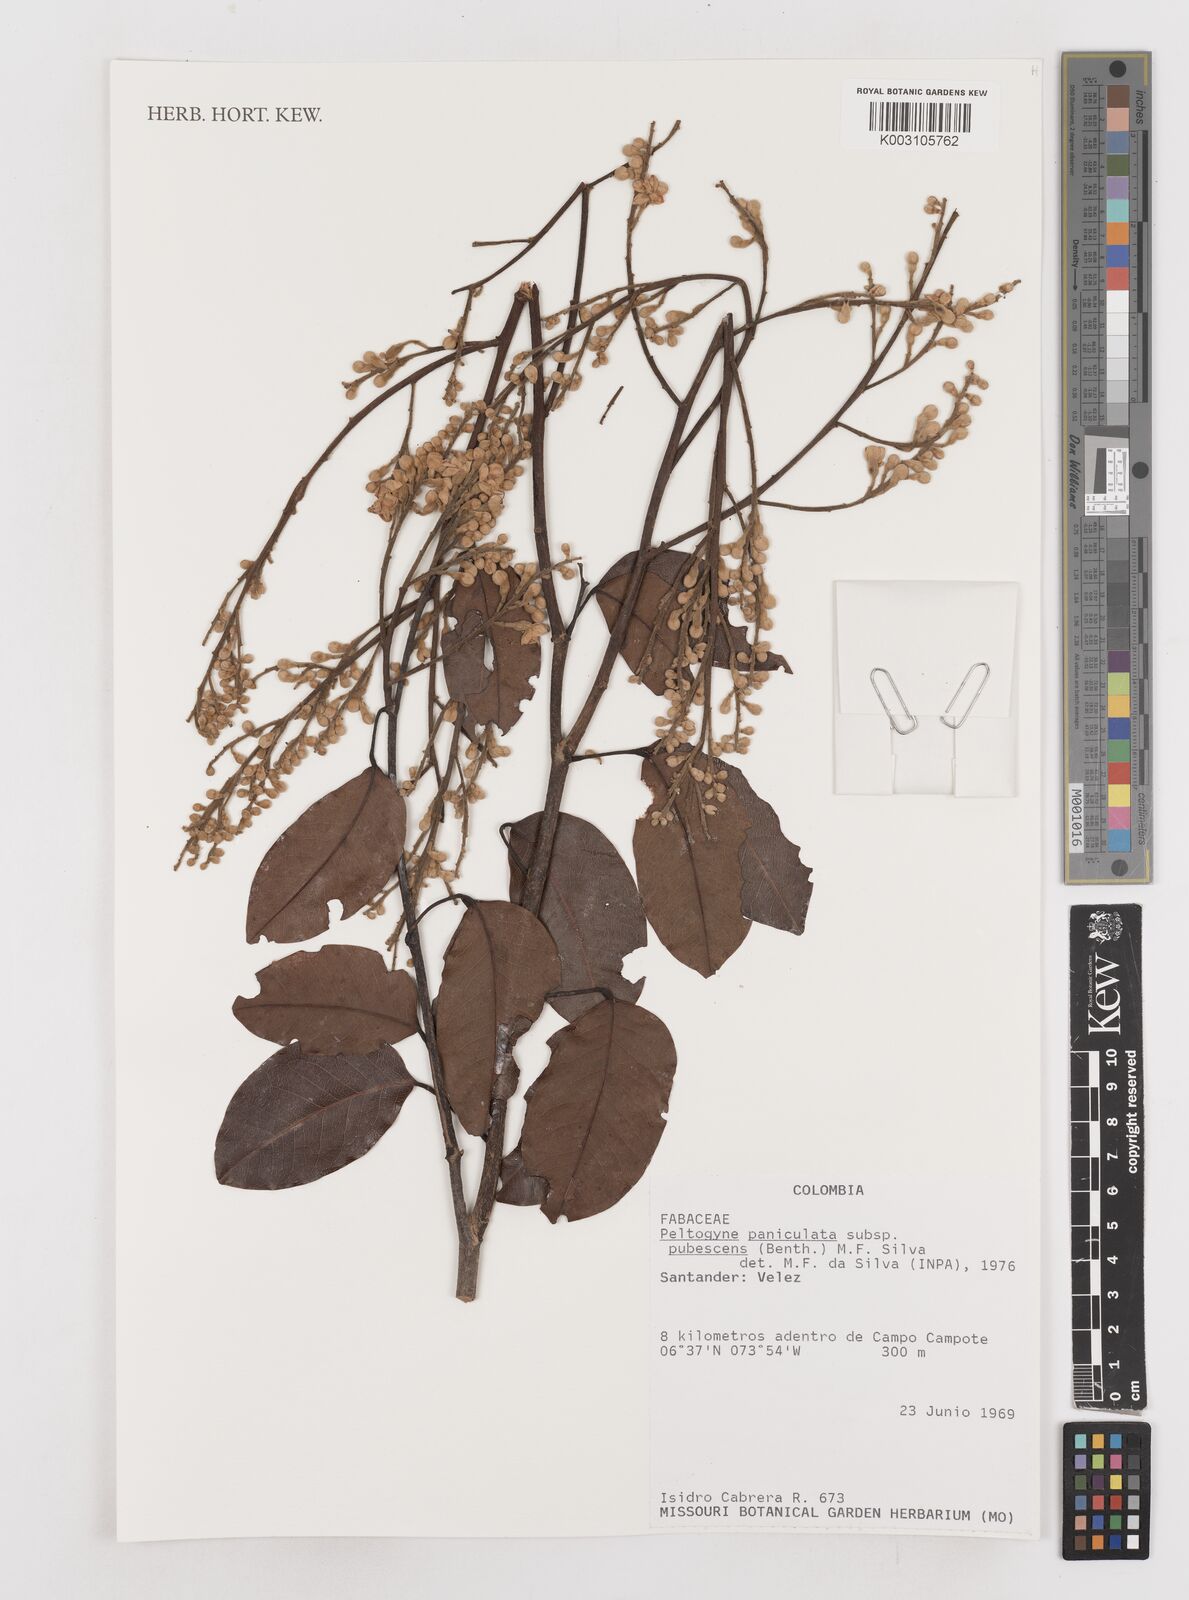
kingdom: Plantae
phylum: Tracheophyta
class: Magnoliopsida
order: Fabales
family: Fabaceae
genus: Peltogyne
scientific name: Peltogyne paniculata
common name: Purpleheart
